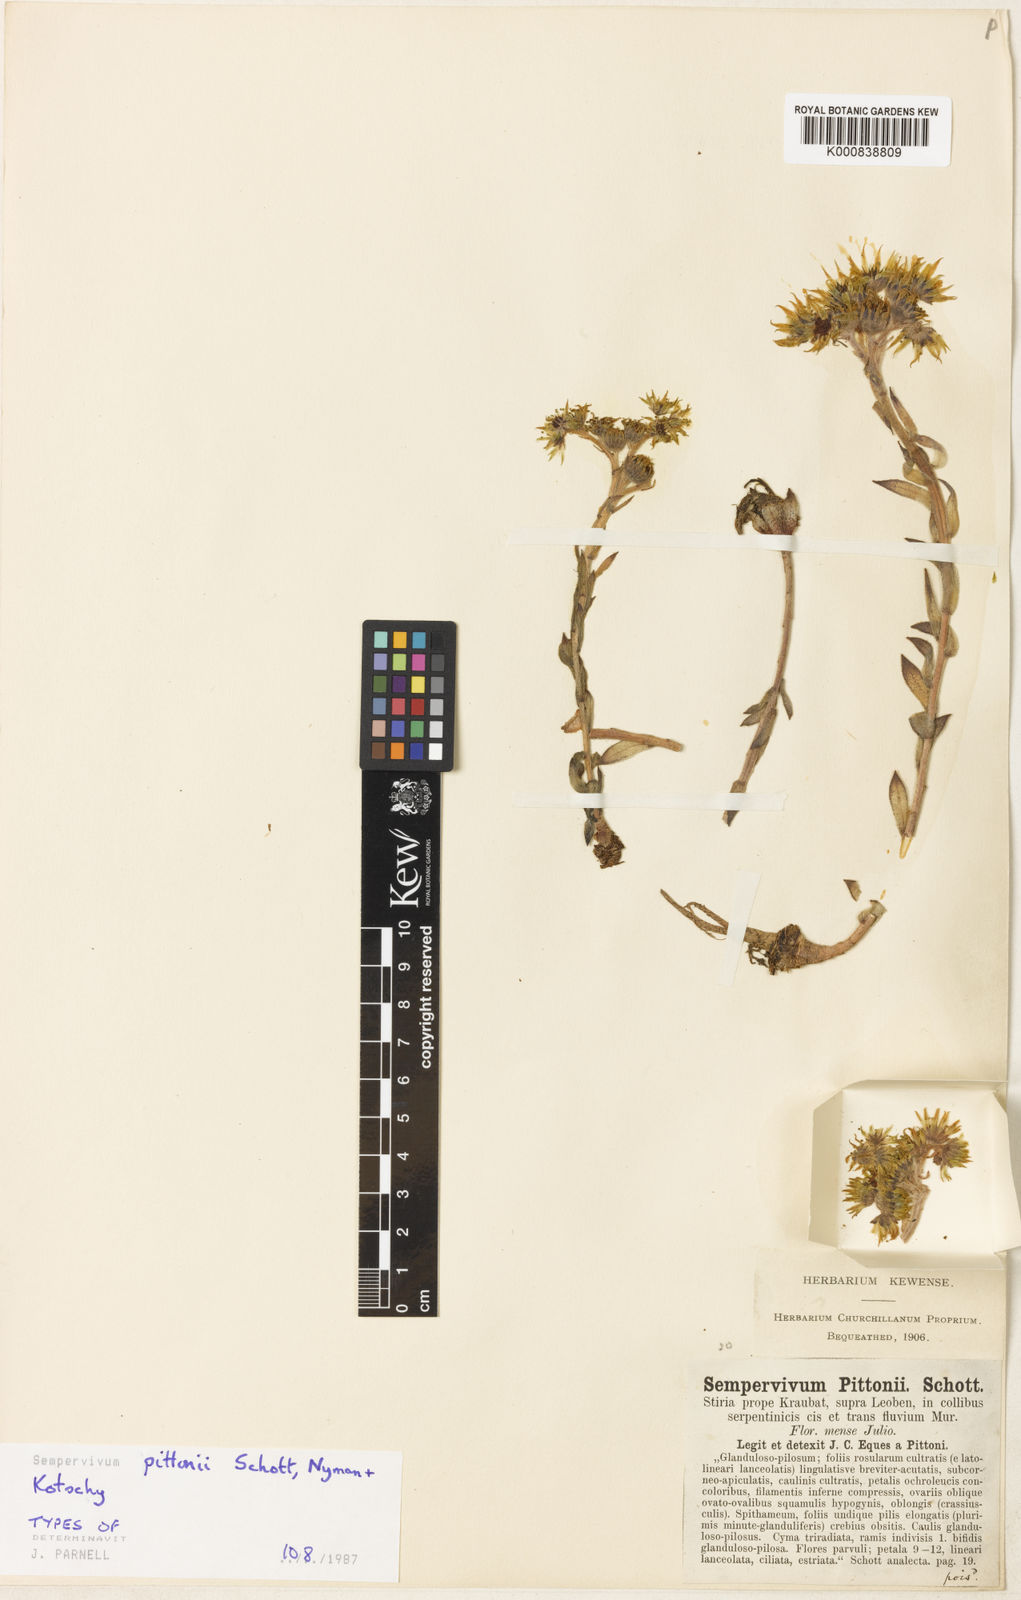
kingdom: Plantae
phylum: Tracheophyta
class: Magnoliopsida
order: Saxifragales
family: Crassulaceae
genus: Sempervivum
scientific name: Sempervivum pittonii
